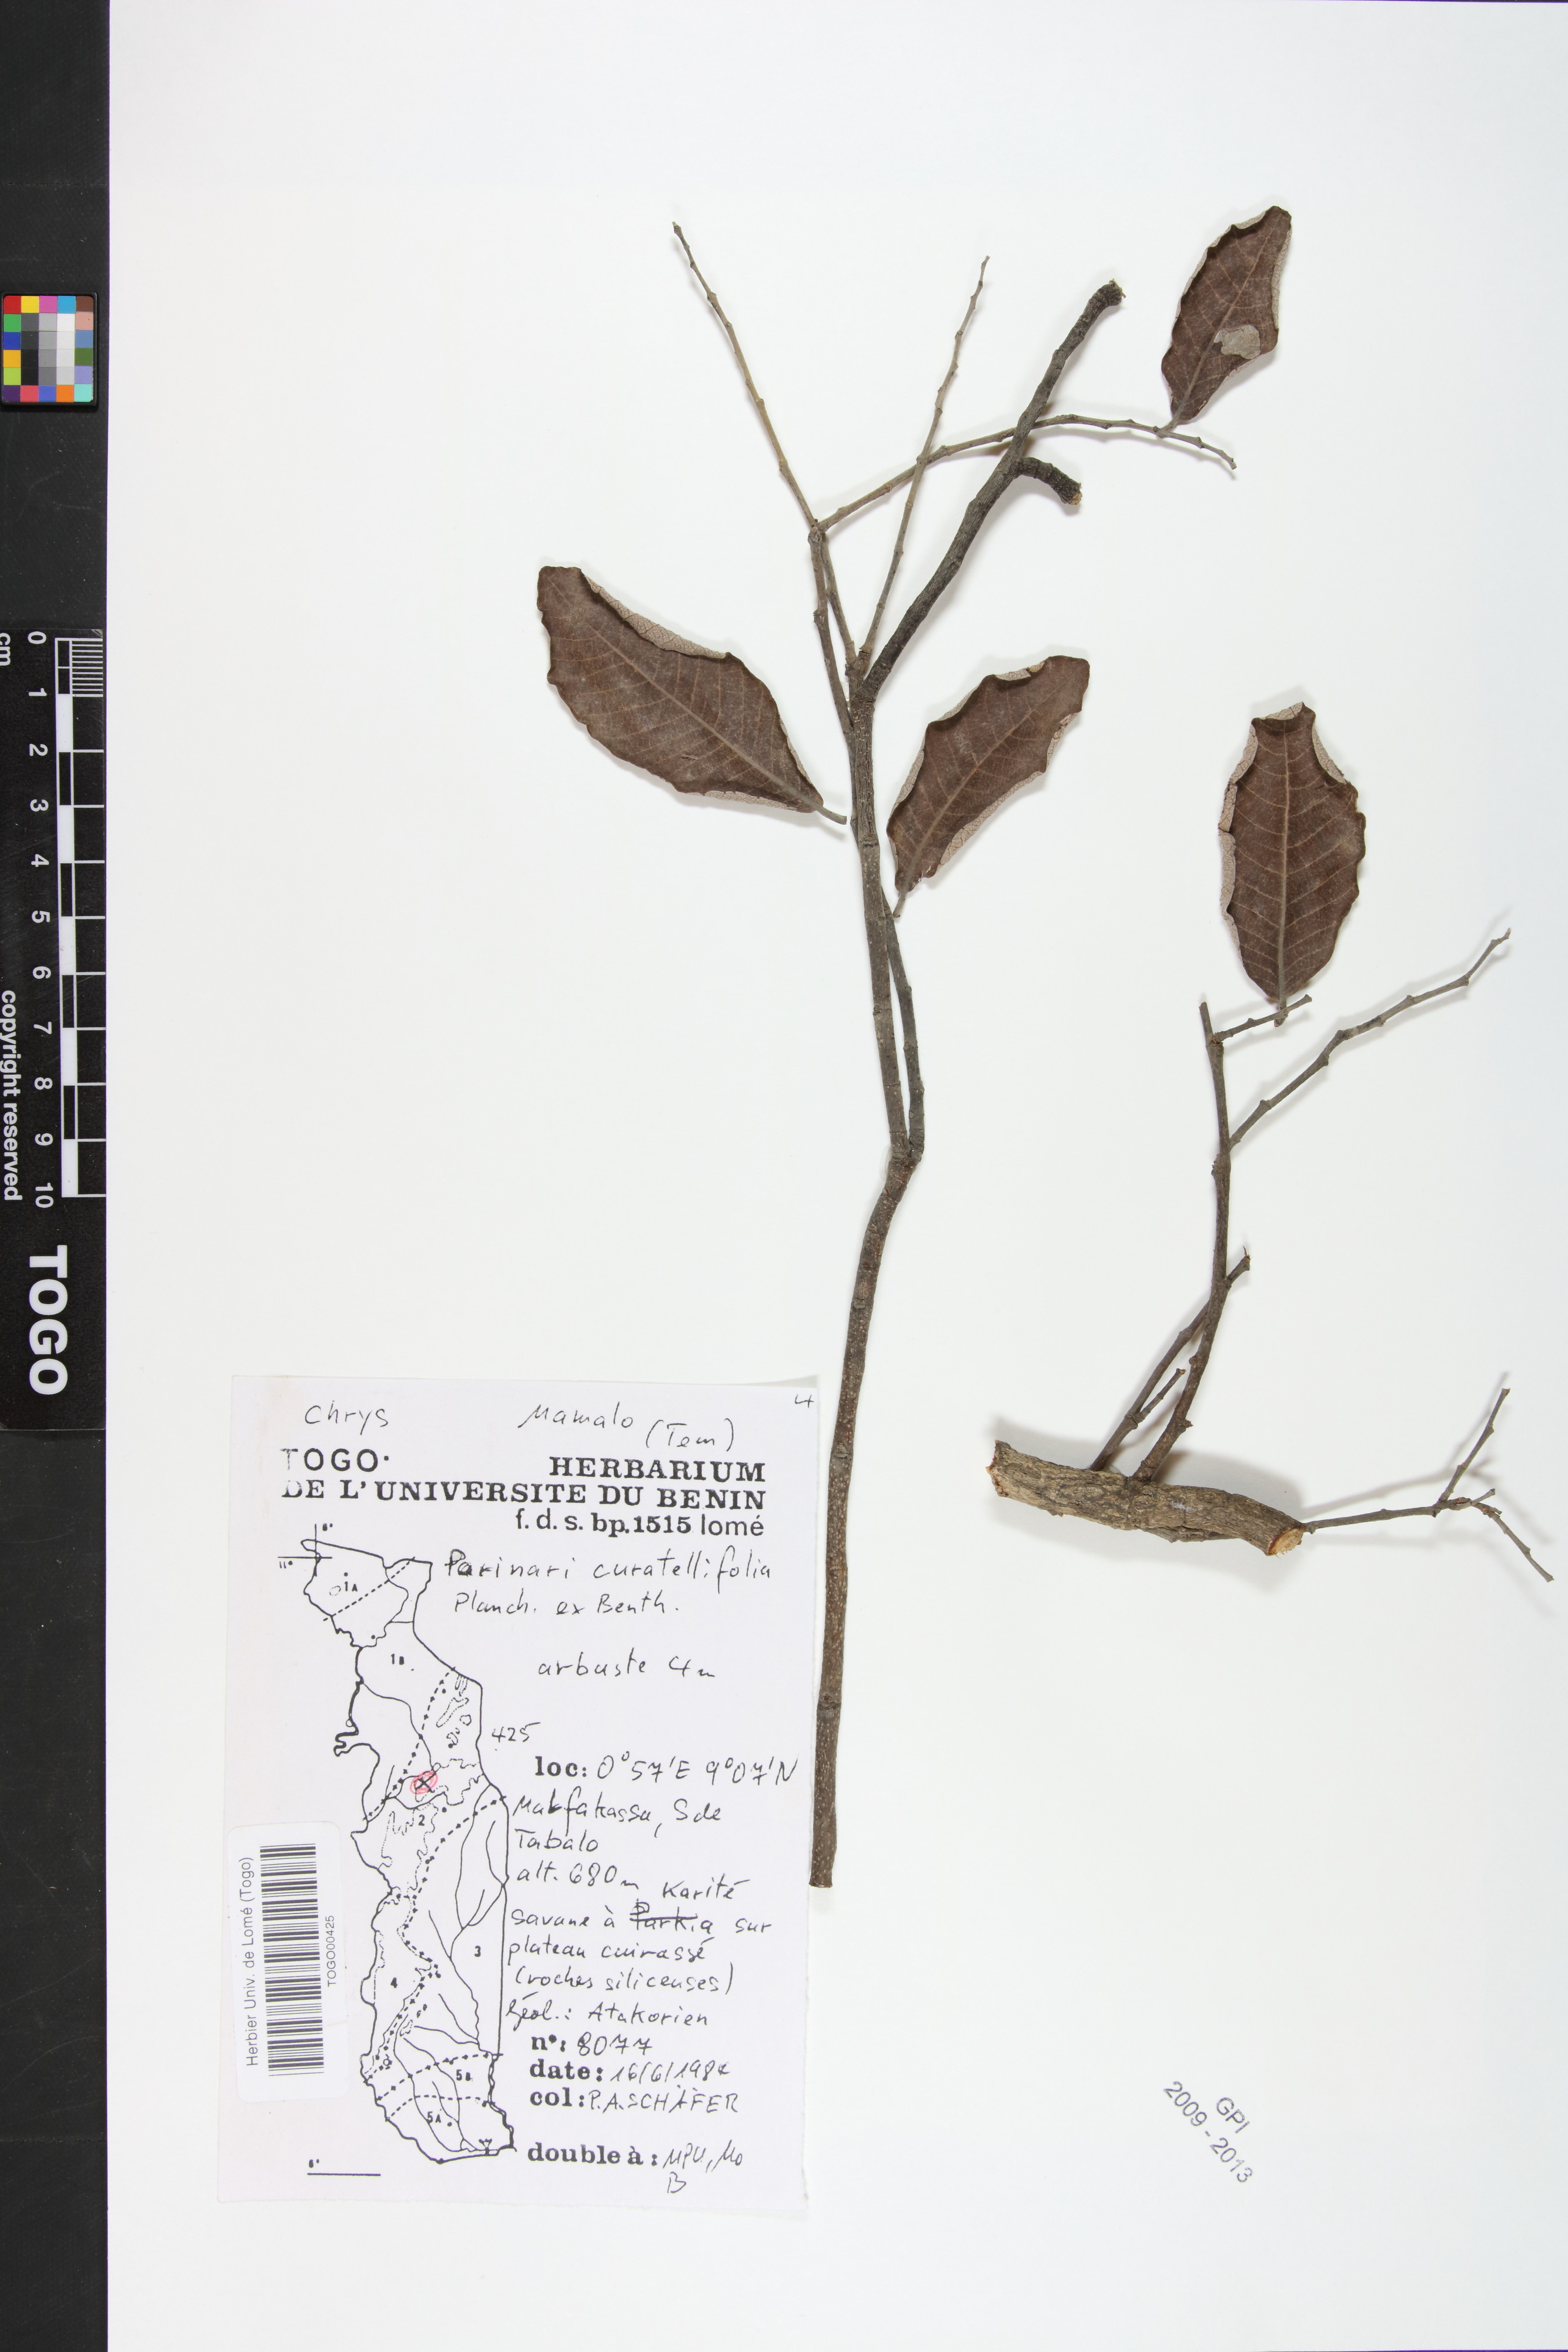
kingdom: Plantae
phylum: Tracheophyta
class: Magnoliopsida
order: Malpighiales
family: Chrysobalanaceae
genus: Parinari
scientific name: Parinari curatellifolia
